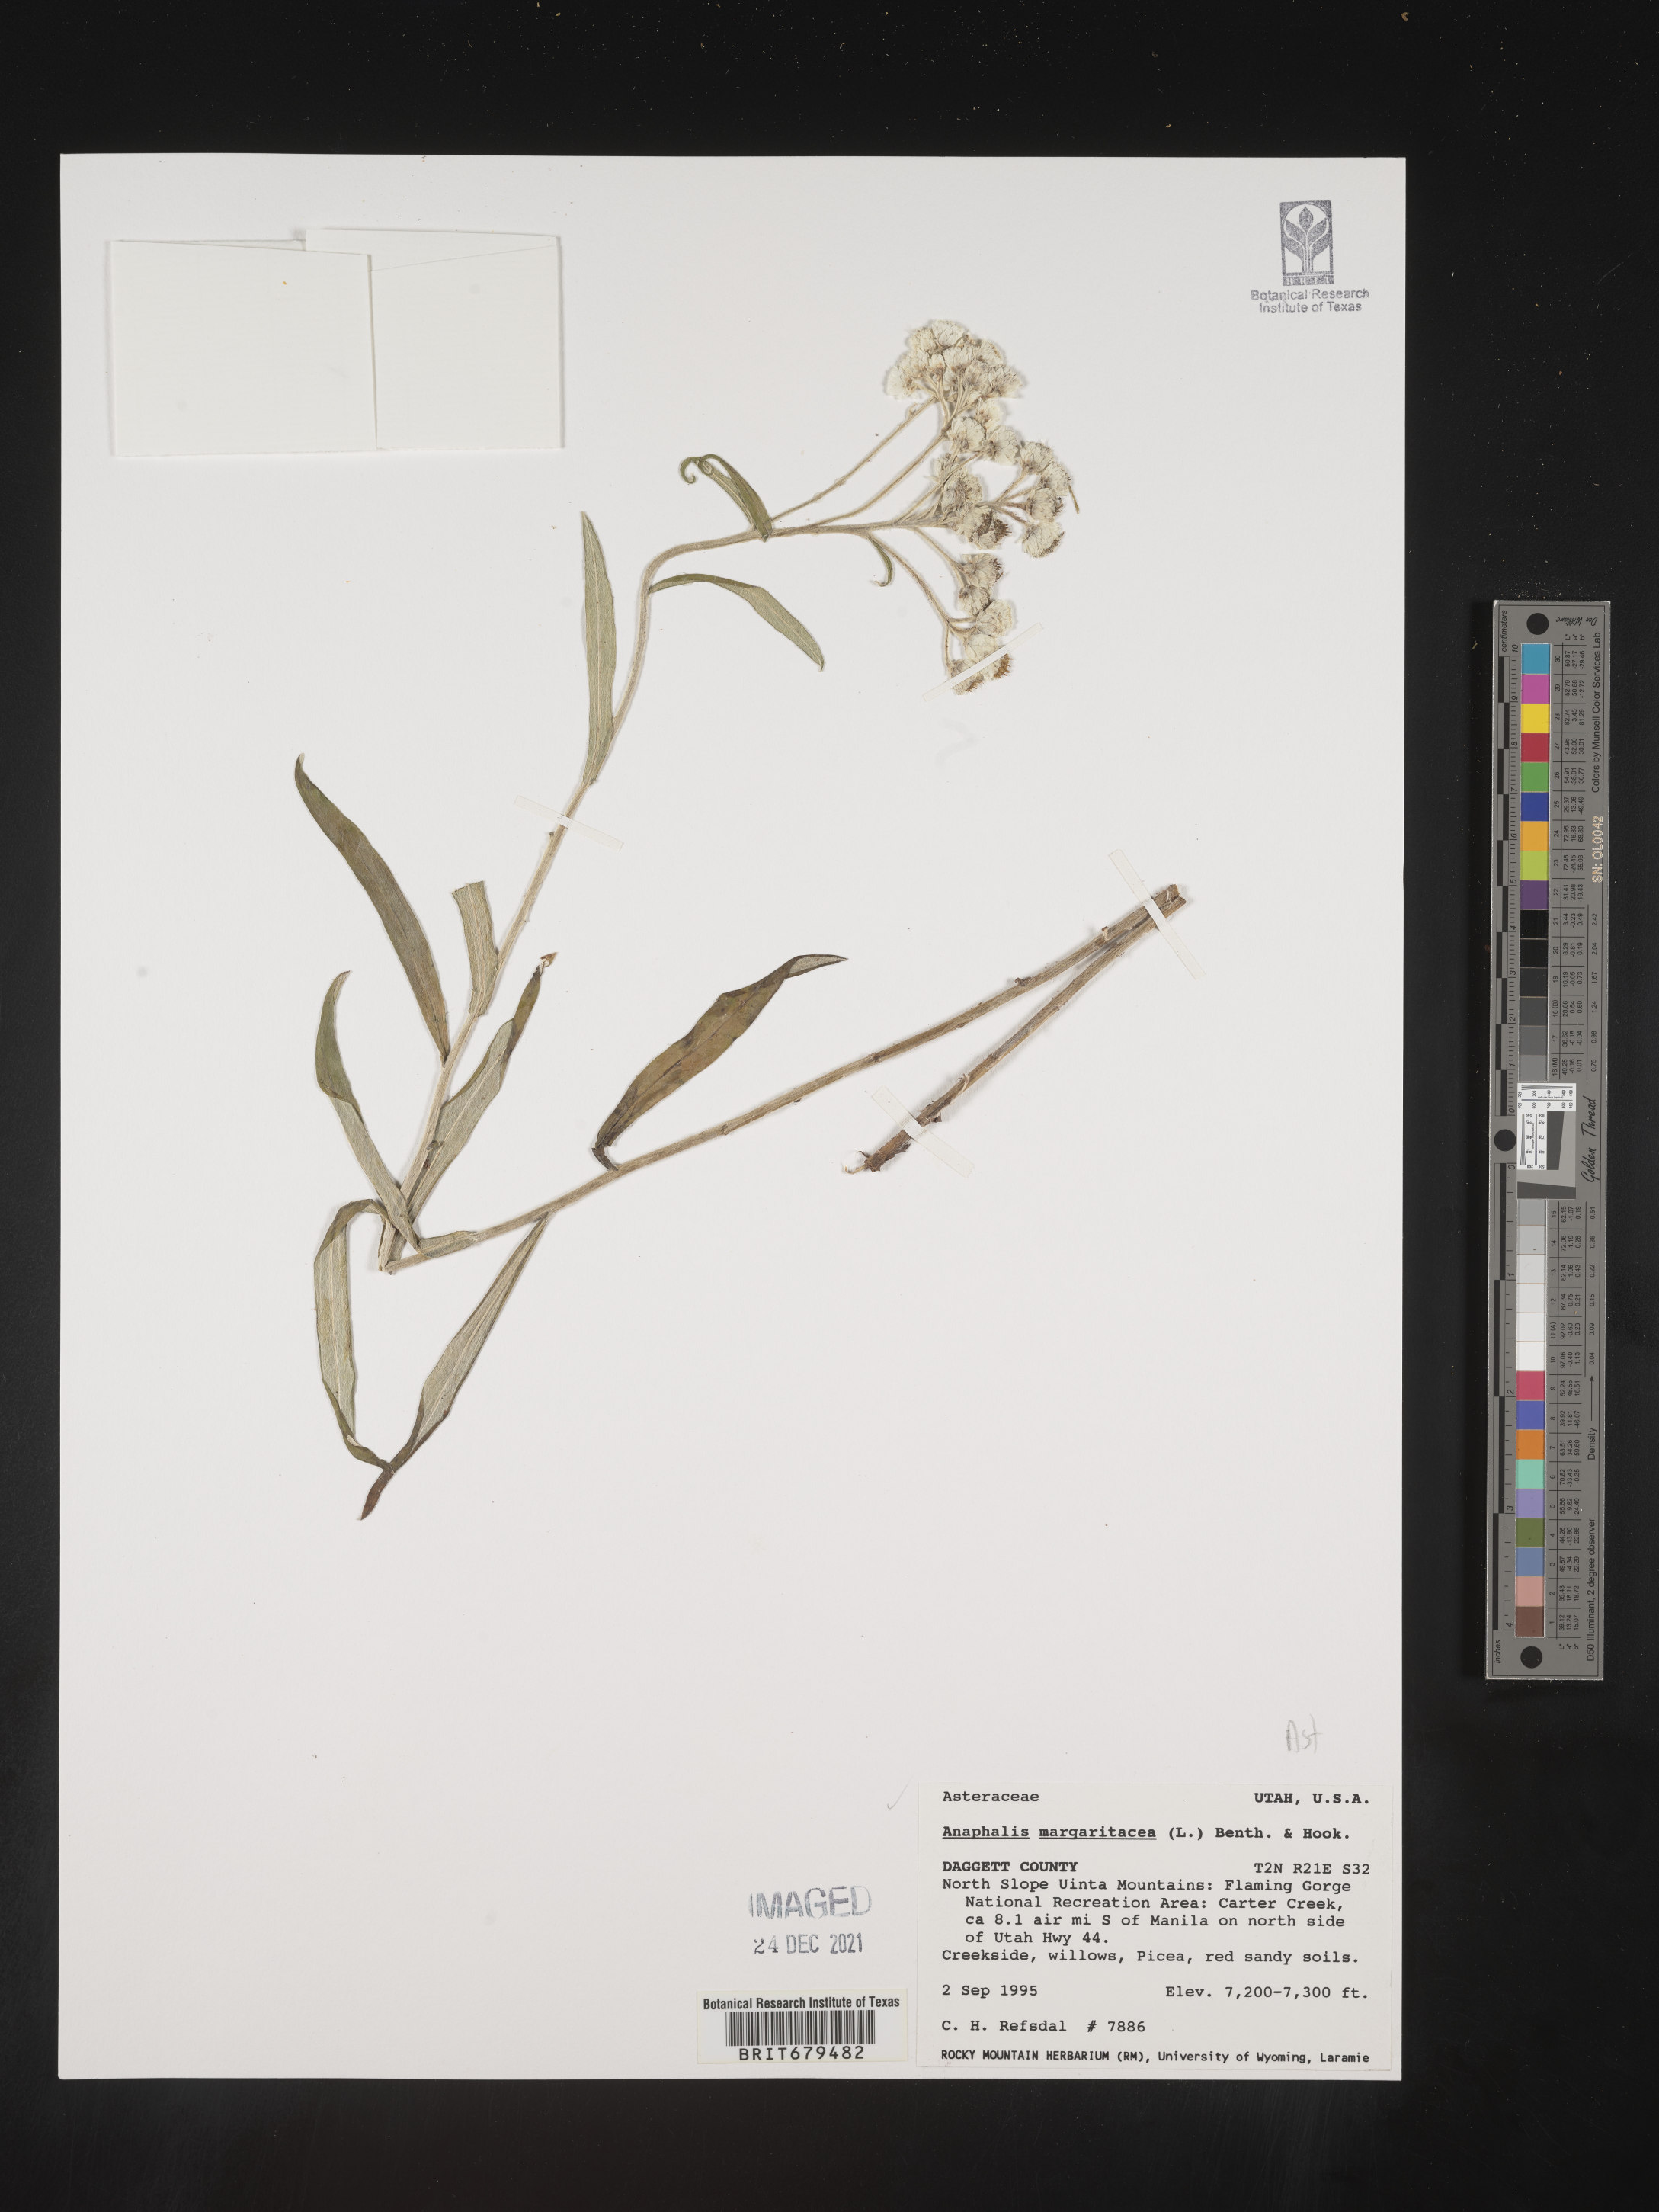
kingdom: Plantae
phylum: Tracheophyta
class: Magnoliopsida
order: Asterales
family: Asteraceae
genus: Anaphalis
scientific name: Anaphalis margaritacea
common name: Pearly everlasting
